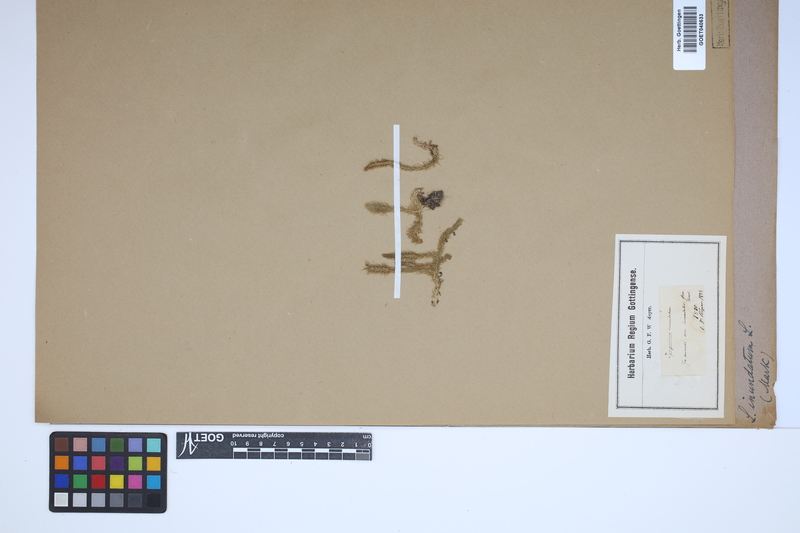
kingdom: Plantae
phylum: Tracheophyta
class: Lycopodiopsida
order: Lycopodiales
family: Lycopodiaceae
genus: Lycopodiella
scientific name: Lycopodiella inundata
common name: Marsh clubmoss
